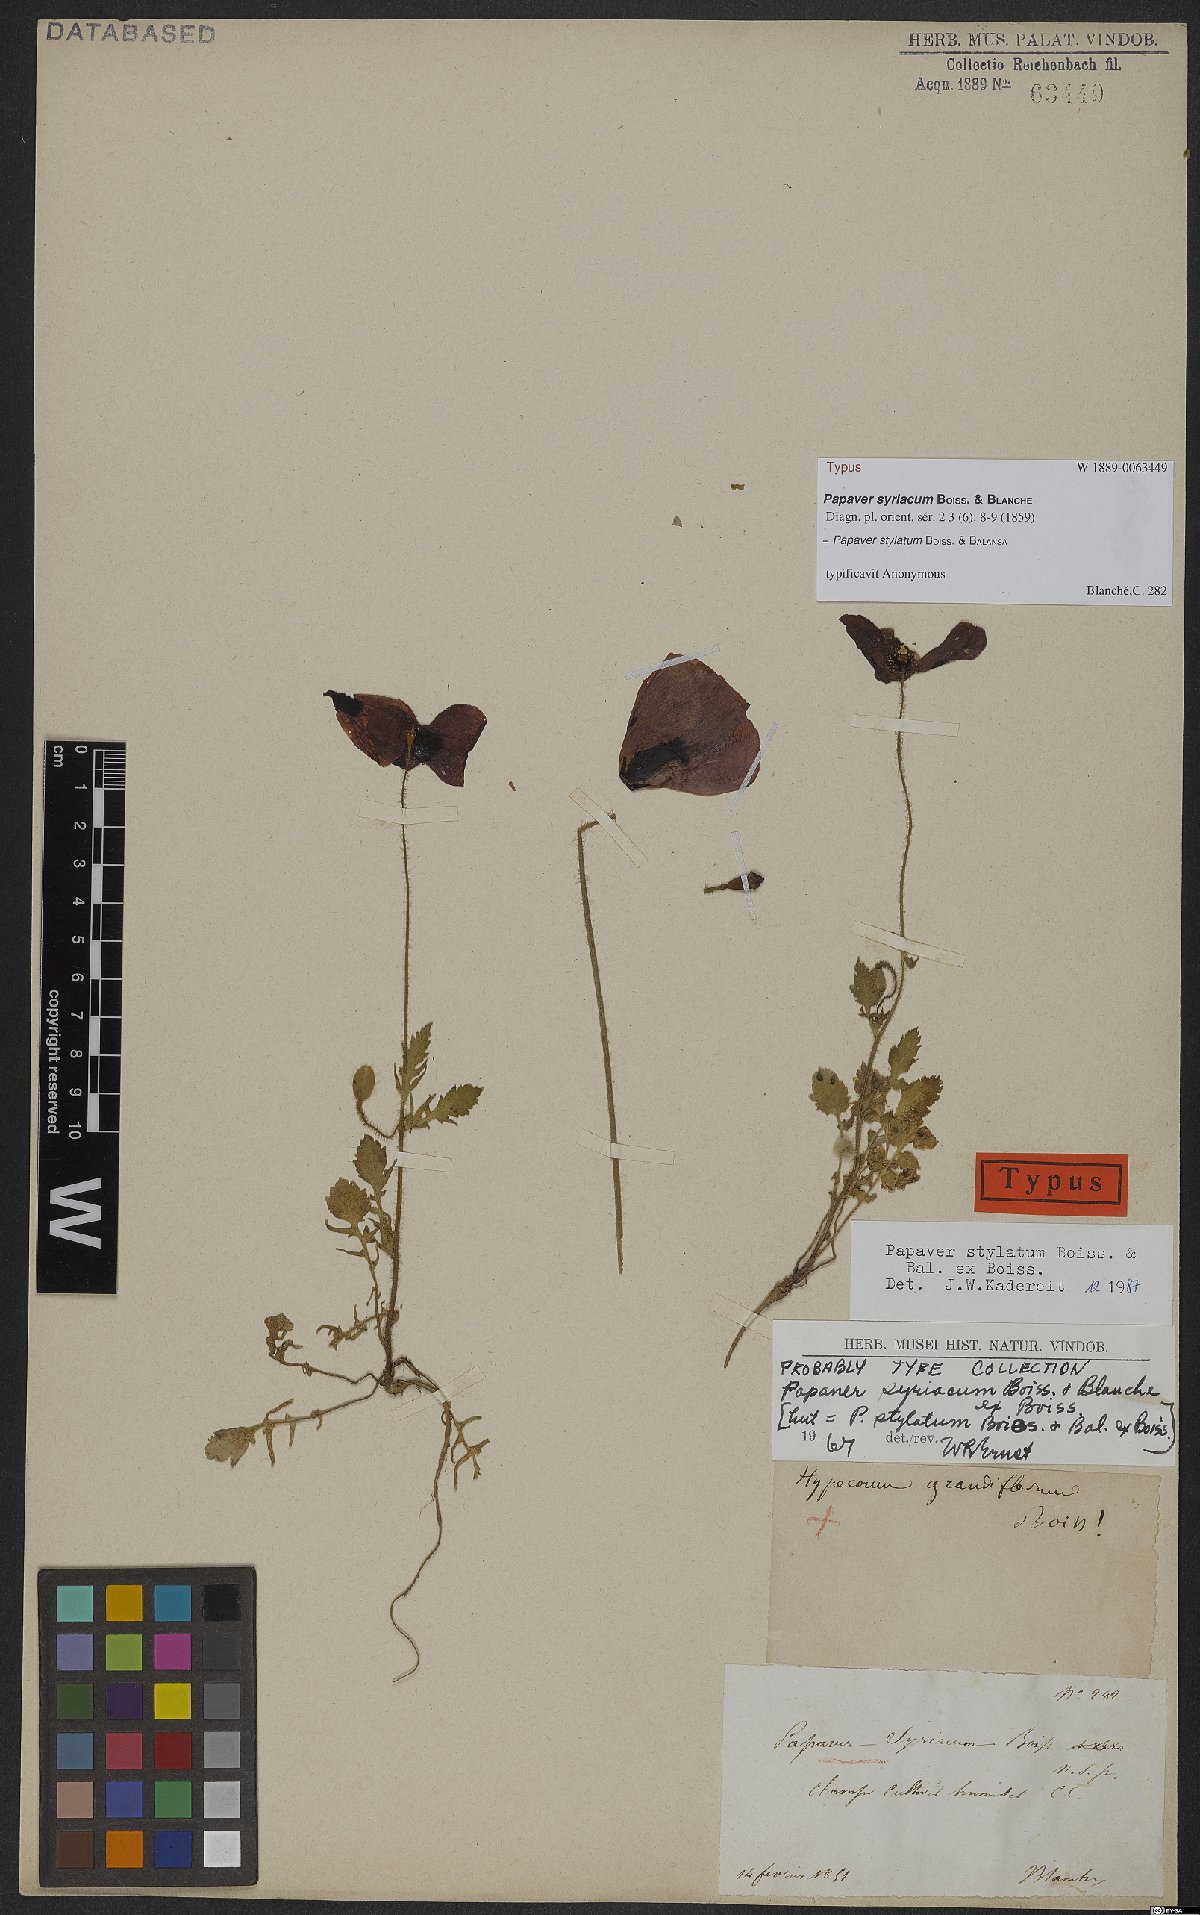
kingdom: Plantae
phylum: Tracheophyta
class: Magnoliopsida
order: Ranunculales
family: Papaveraceae
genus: Papaver
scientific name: Papaver umbonatum
